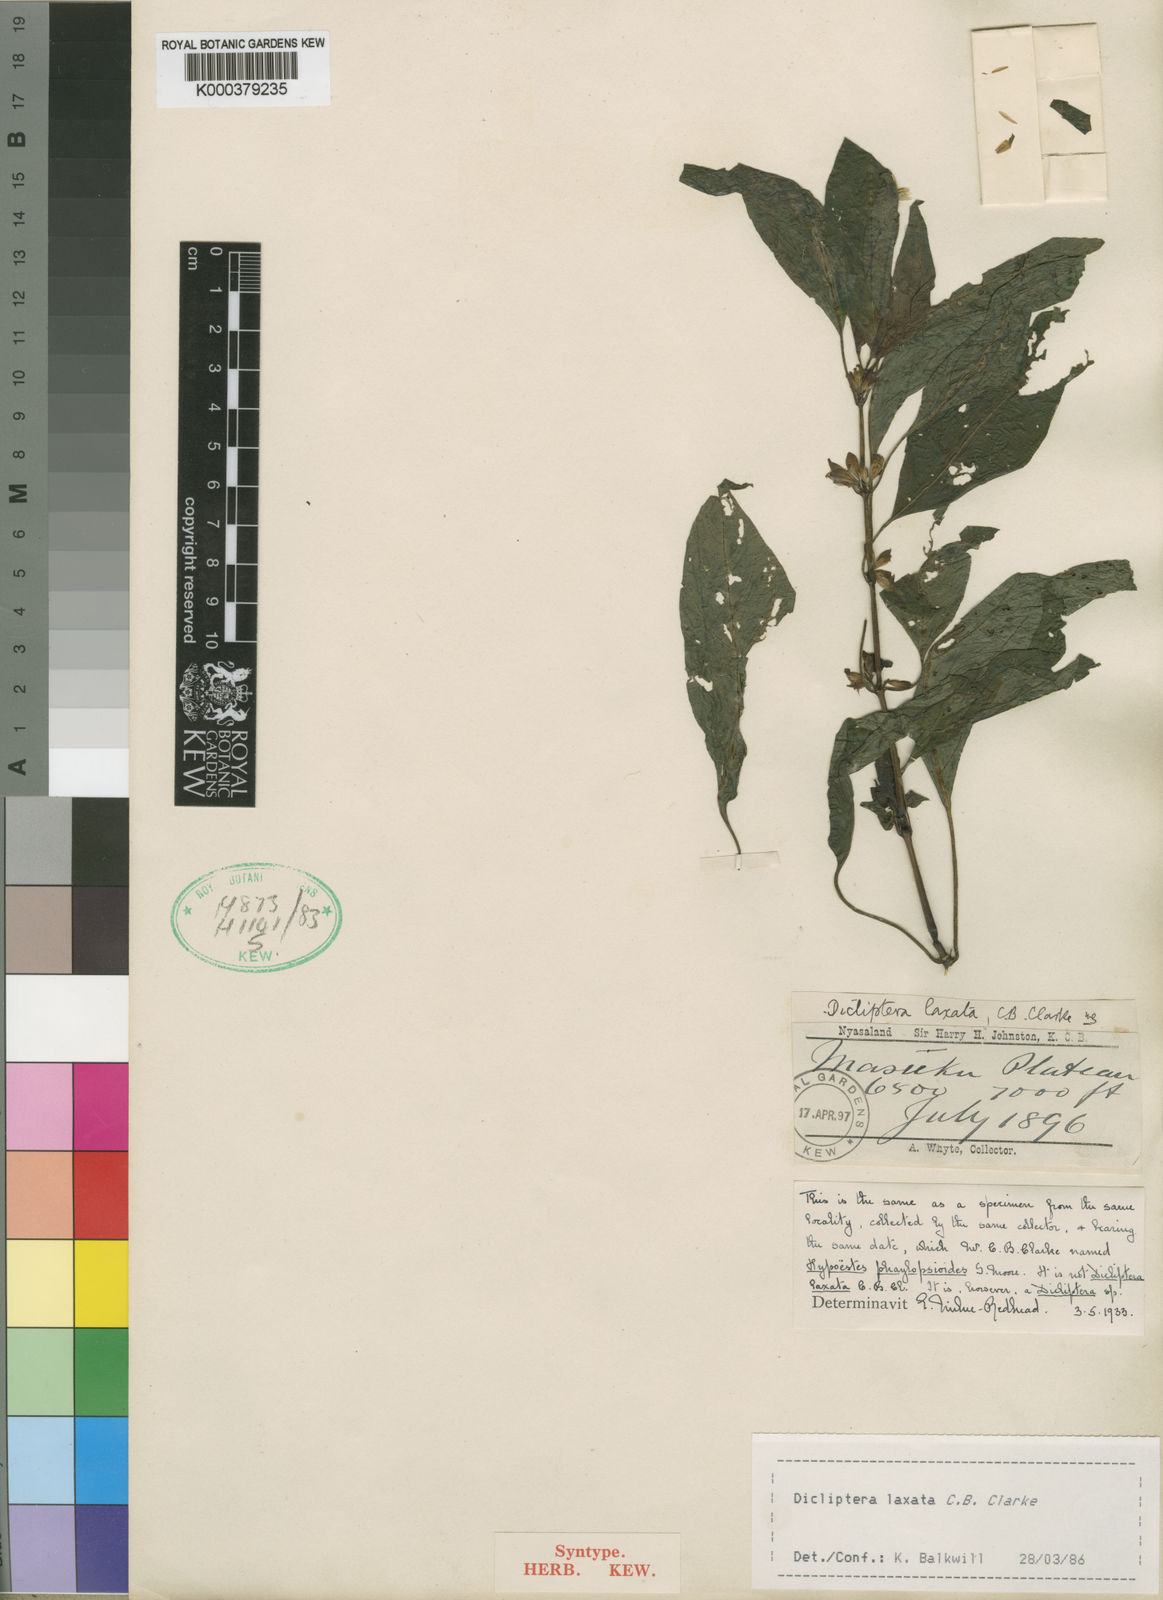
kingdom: Plantae
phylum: Tracheophyta
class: Magnoliopsida
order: Lamiales
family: Acanthaceae
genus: Dicliptera
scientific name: Dicliptera laxata
